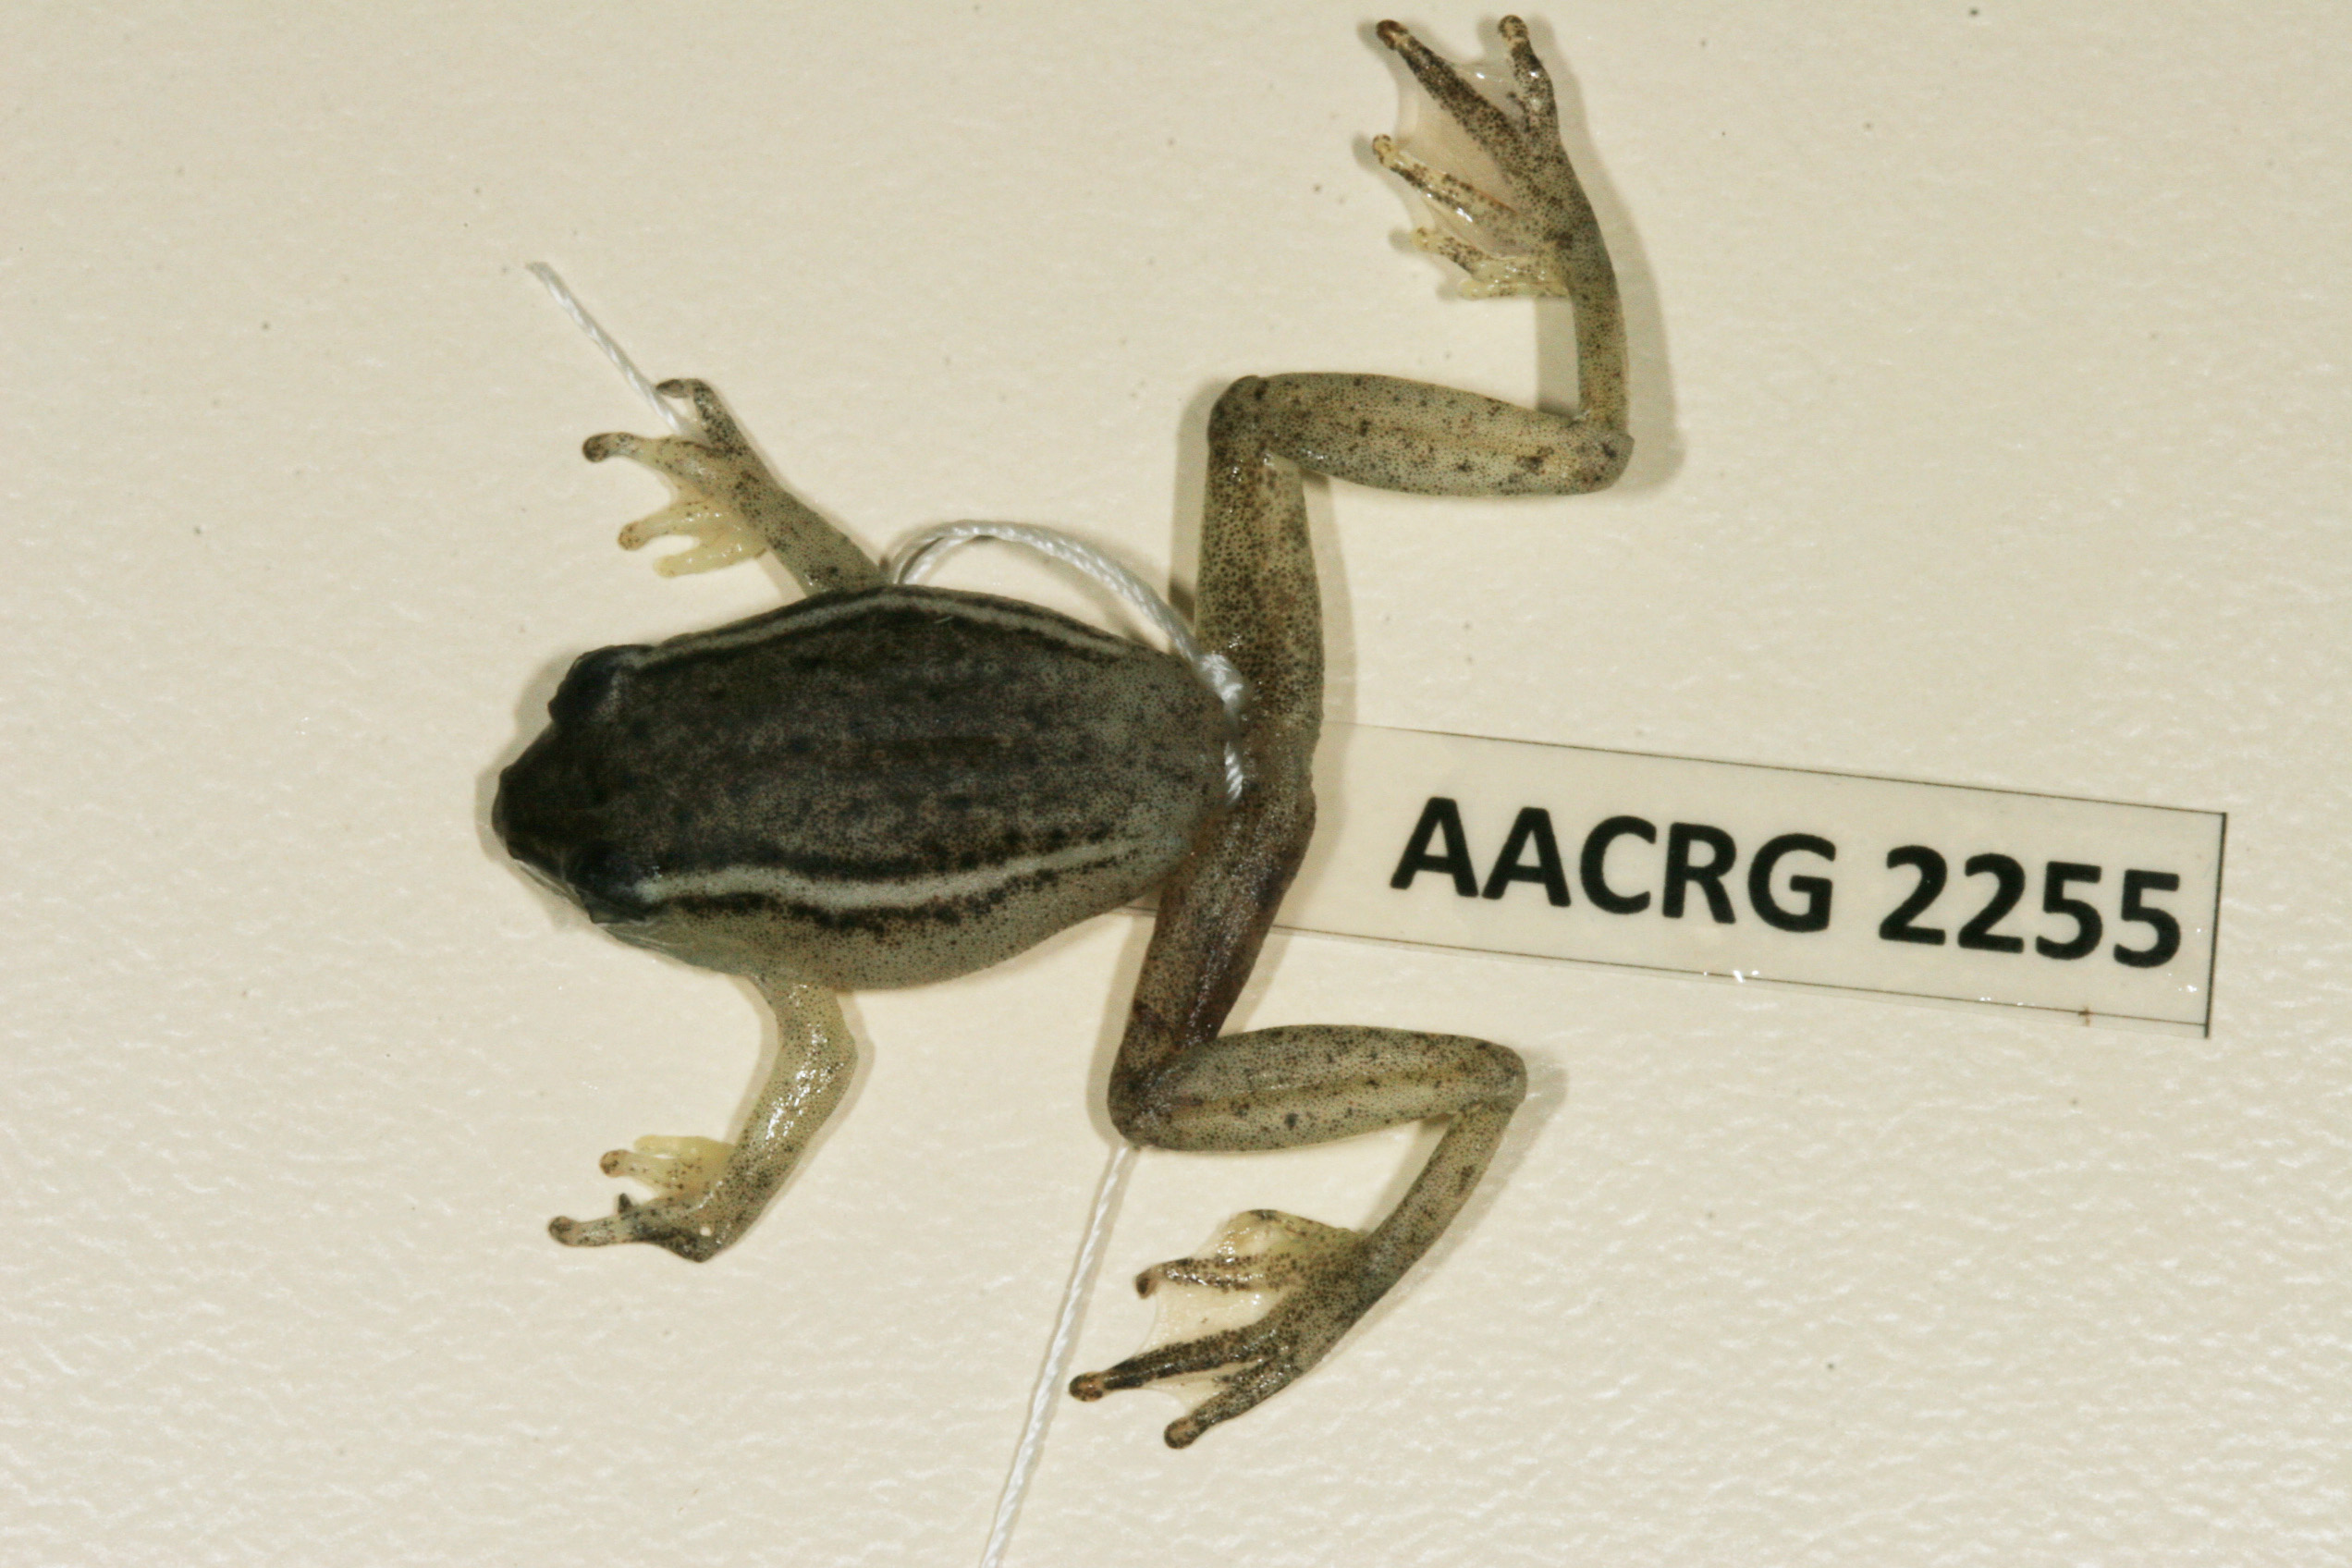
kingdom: Animalia
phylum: Chordata
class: Amphibia
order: Anura
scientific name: Anura
